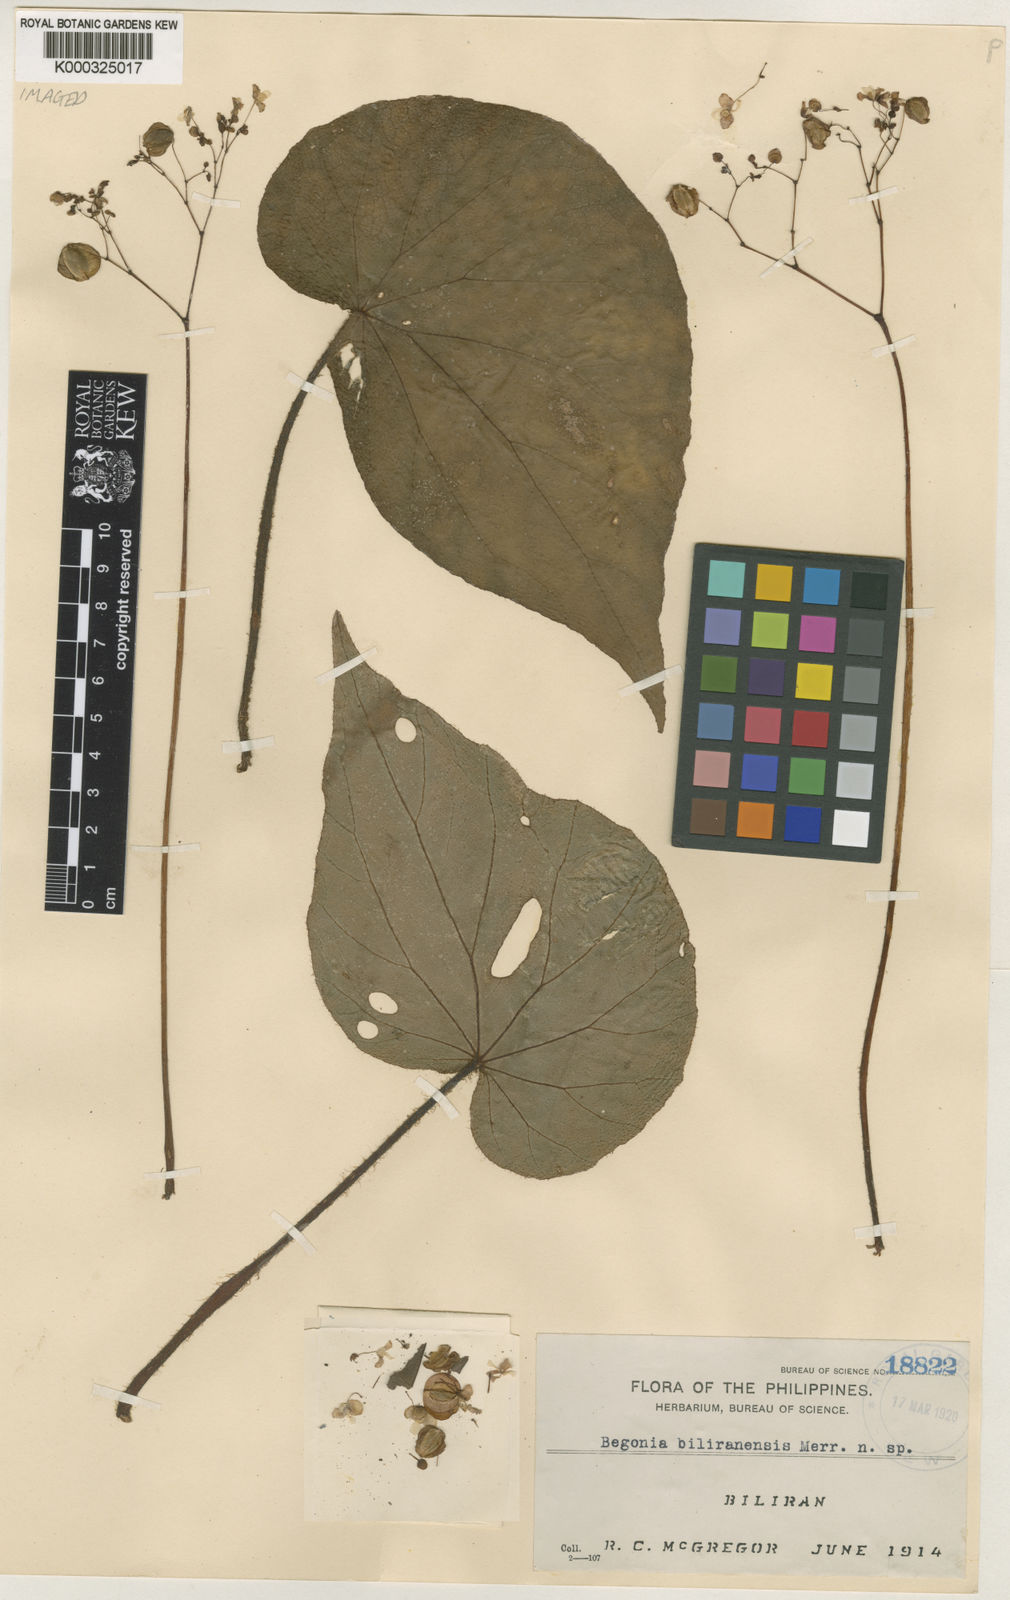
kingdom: Plantae
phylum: Tracheophyta
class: Magnoliopsida
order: Cucurbitales
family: Begoniaceae
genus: Begonia
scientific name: Begonia biliranensis
